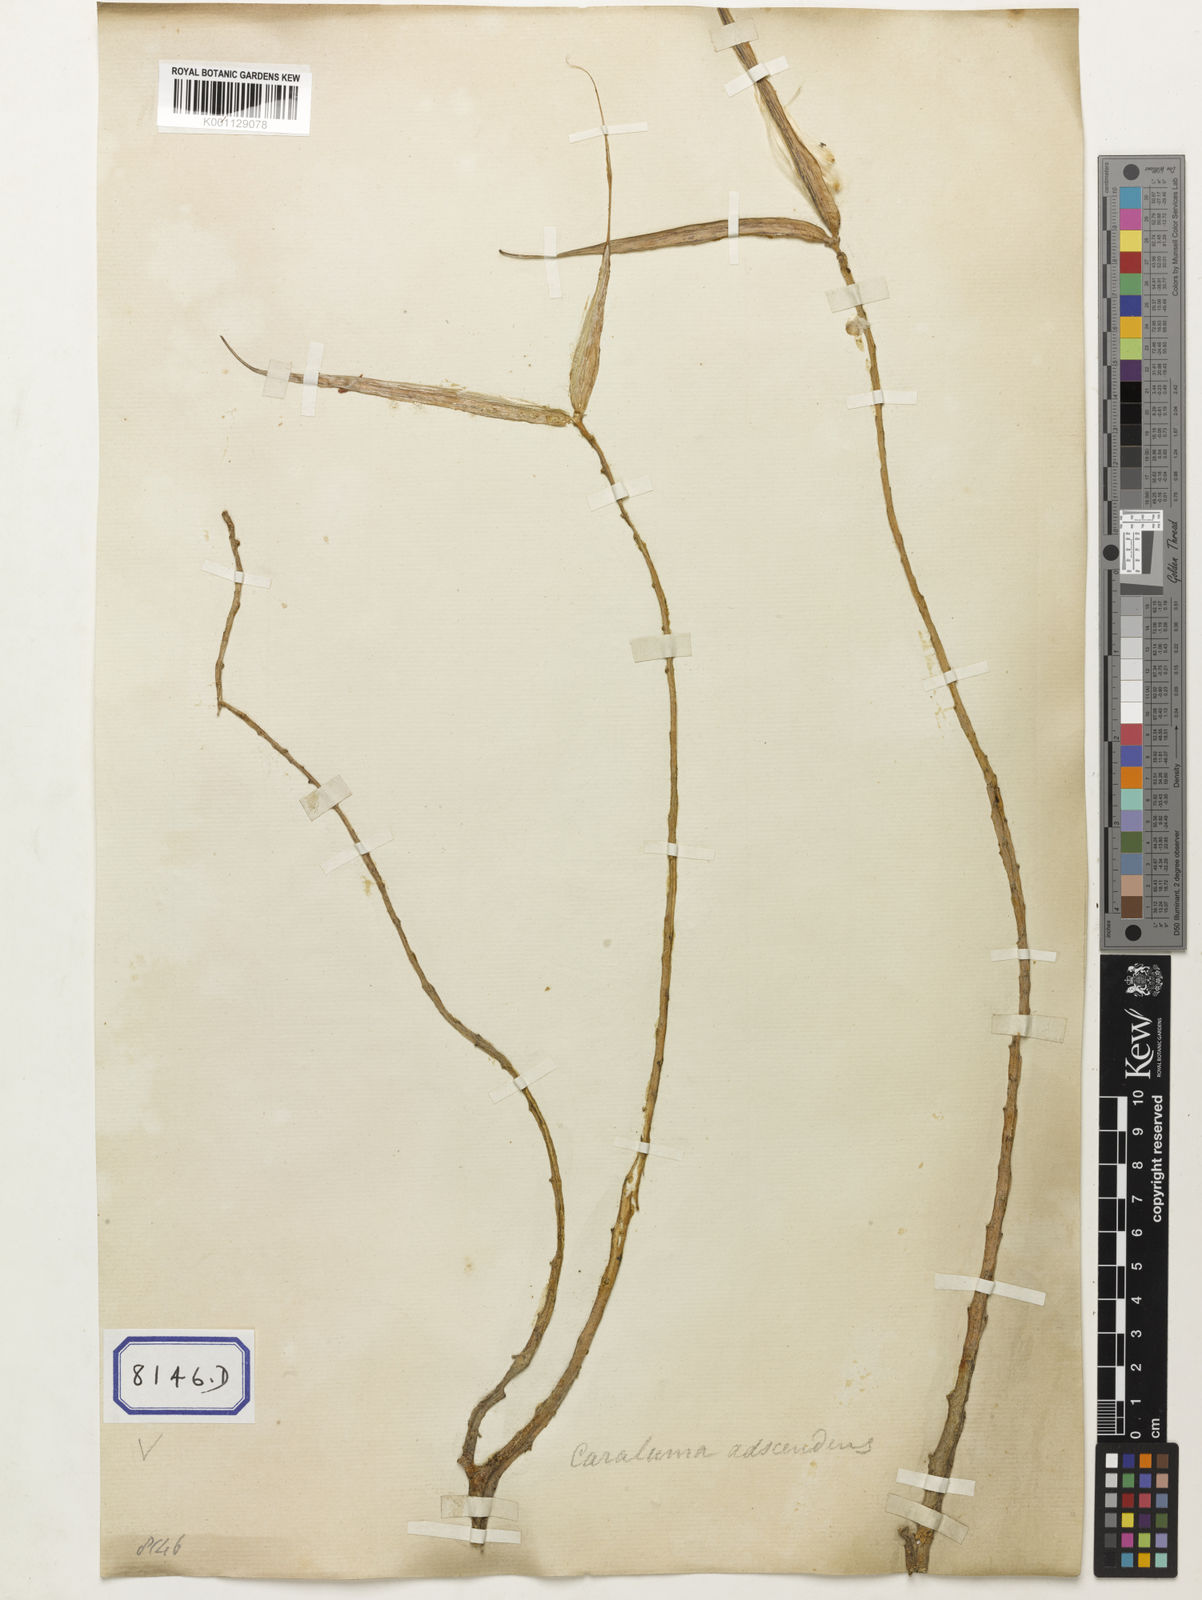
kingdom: Plantae
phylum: Tracheophyta
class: Magnoliopsida
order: Gentianales
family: Apocynaceae
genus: Caralluma
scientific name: Caralluma
